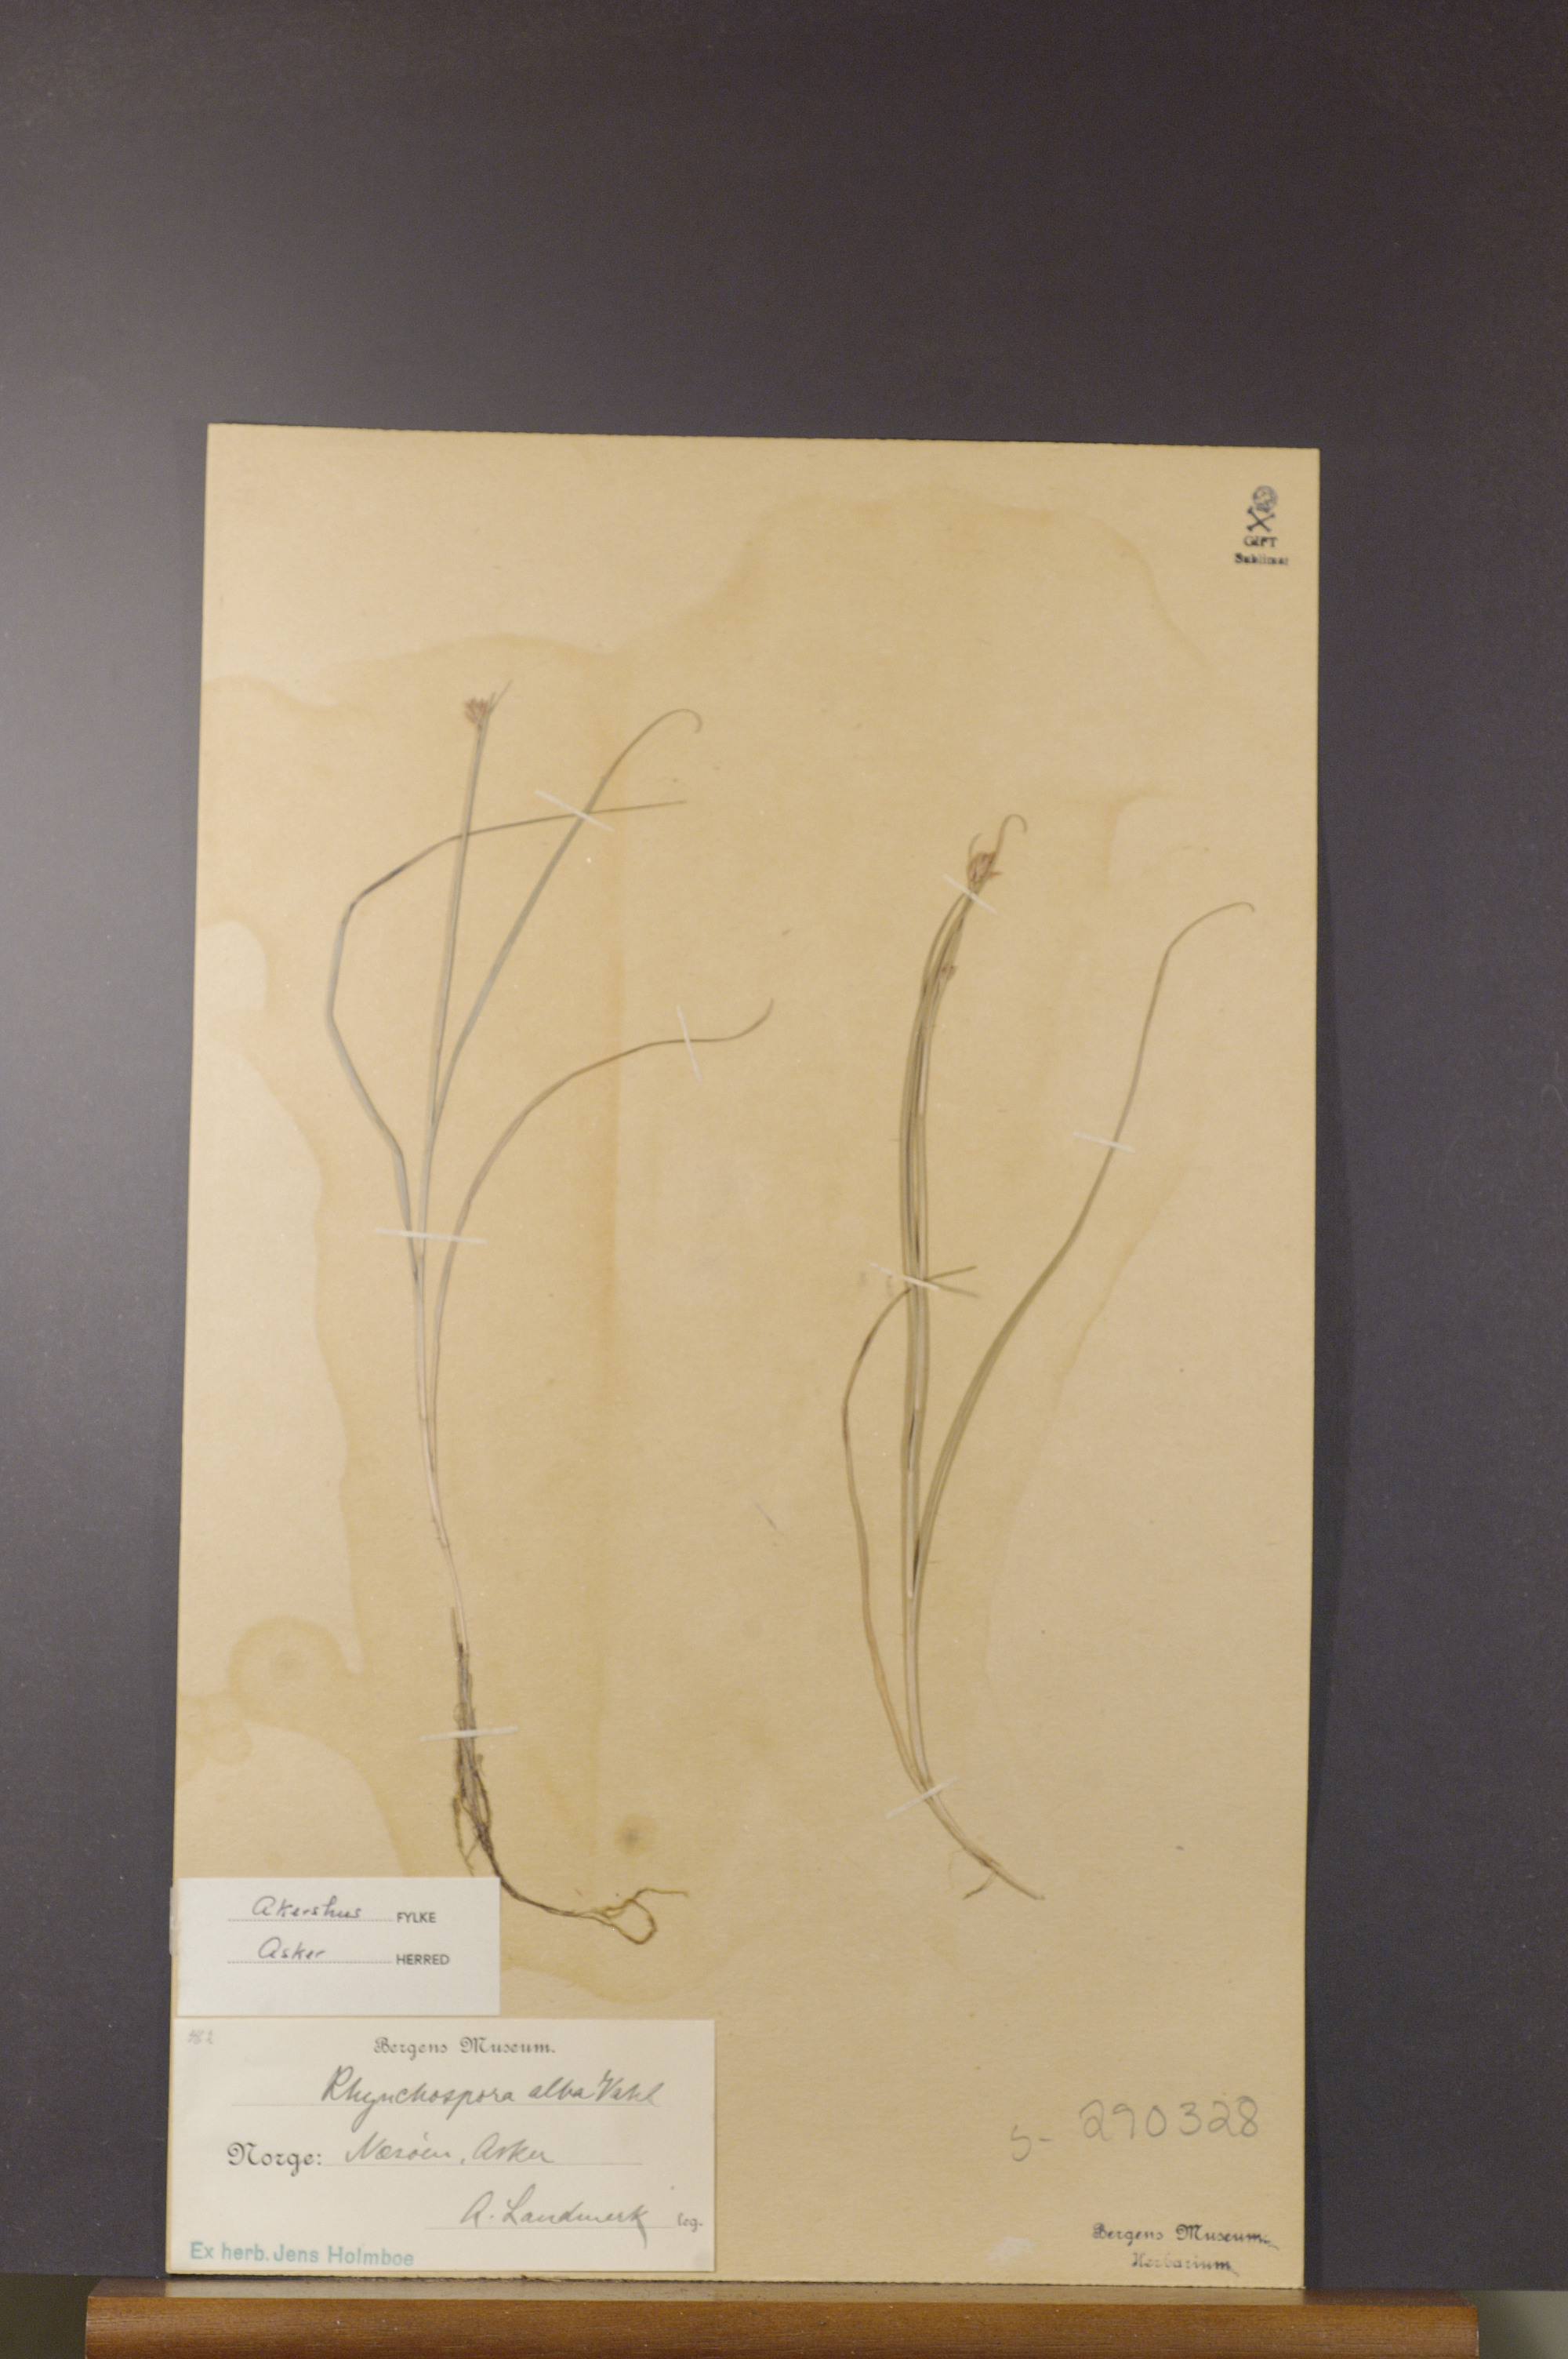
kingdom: Plantae
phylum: Tracheophyta
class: Liliopsida
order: Poales
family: Cyperaceae
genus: Rhynchospora
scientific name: Rhynchospora alba
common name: White beak-sedge
